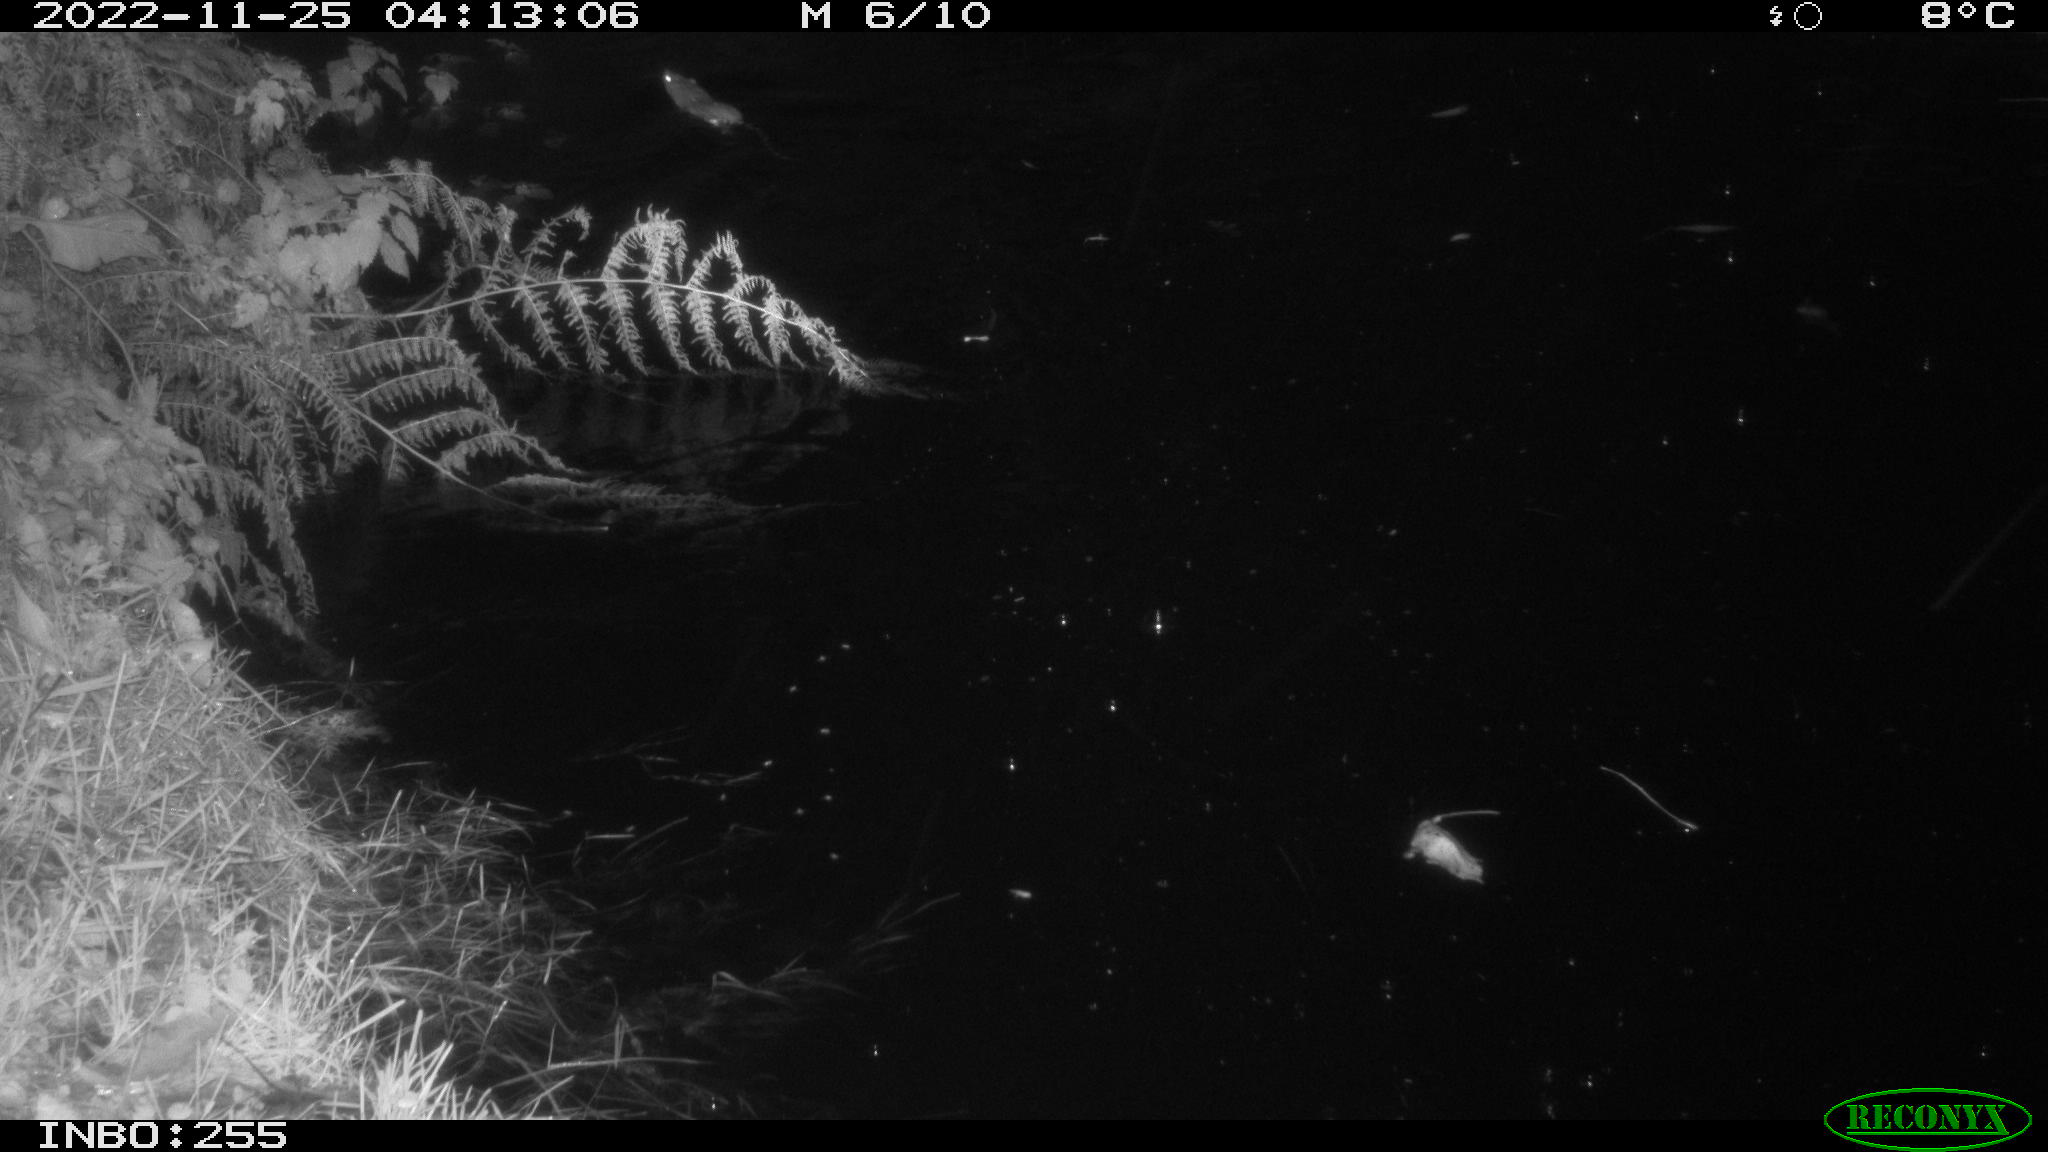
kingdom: Animalia
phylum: Chordata
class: Mammalia
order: Rodentia
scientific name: Rodentia
